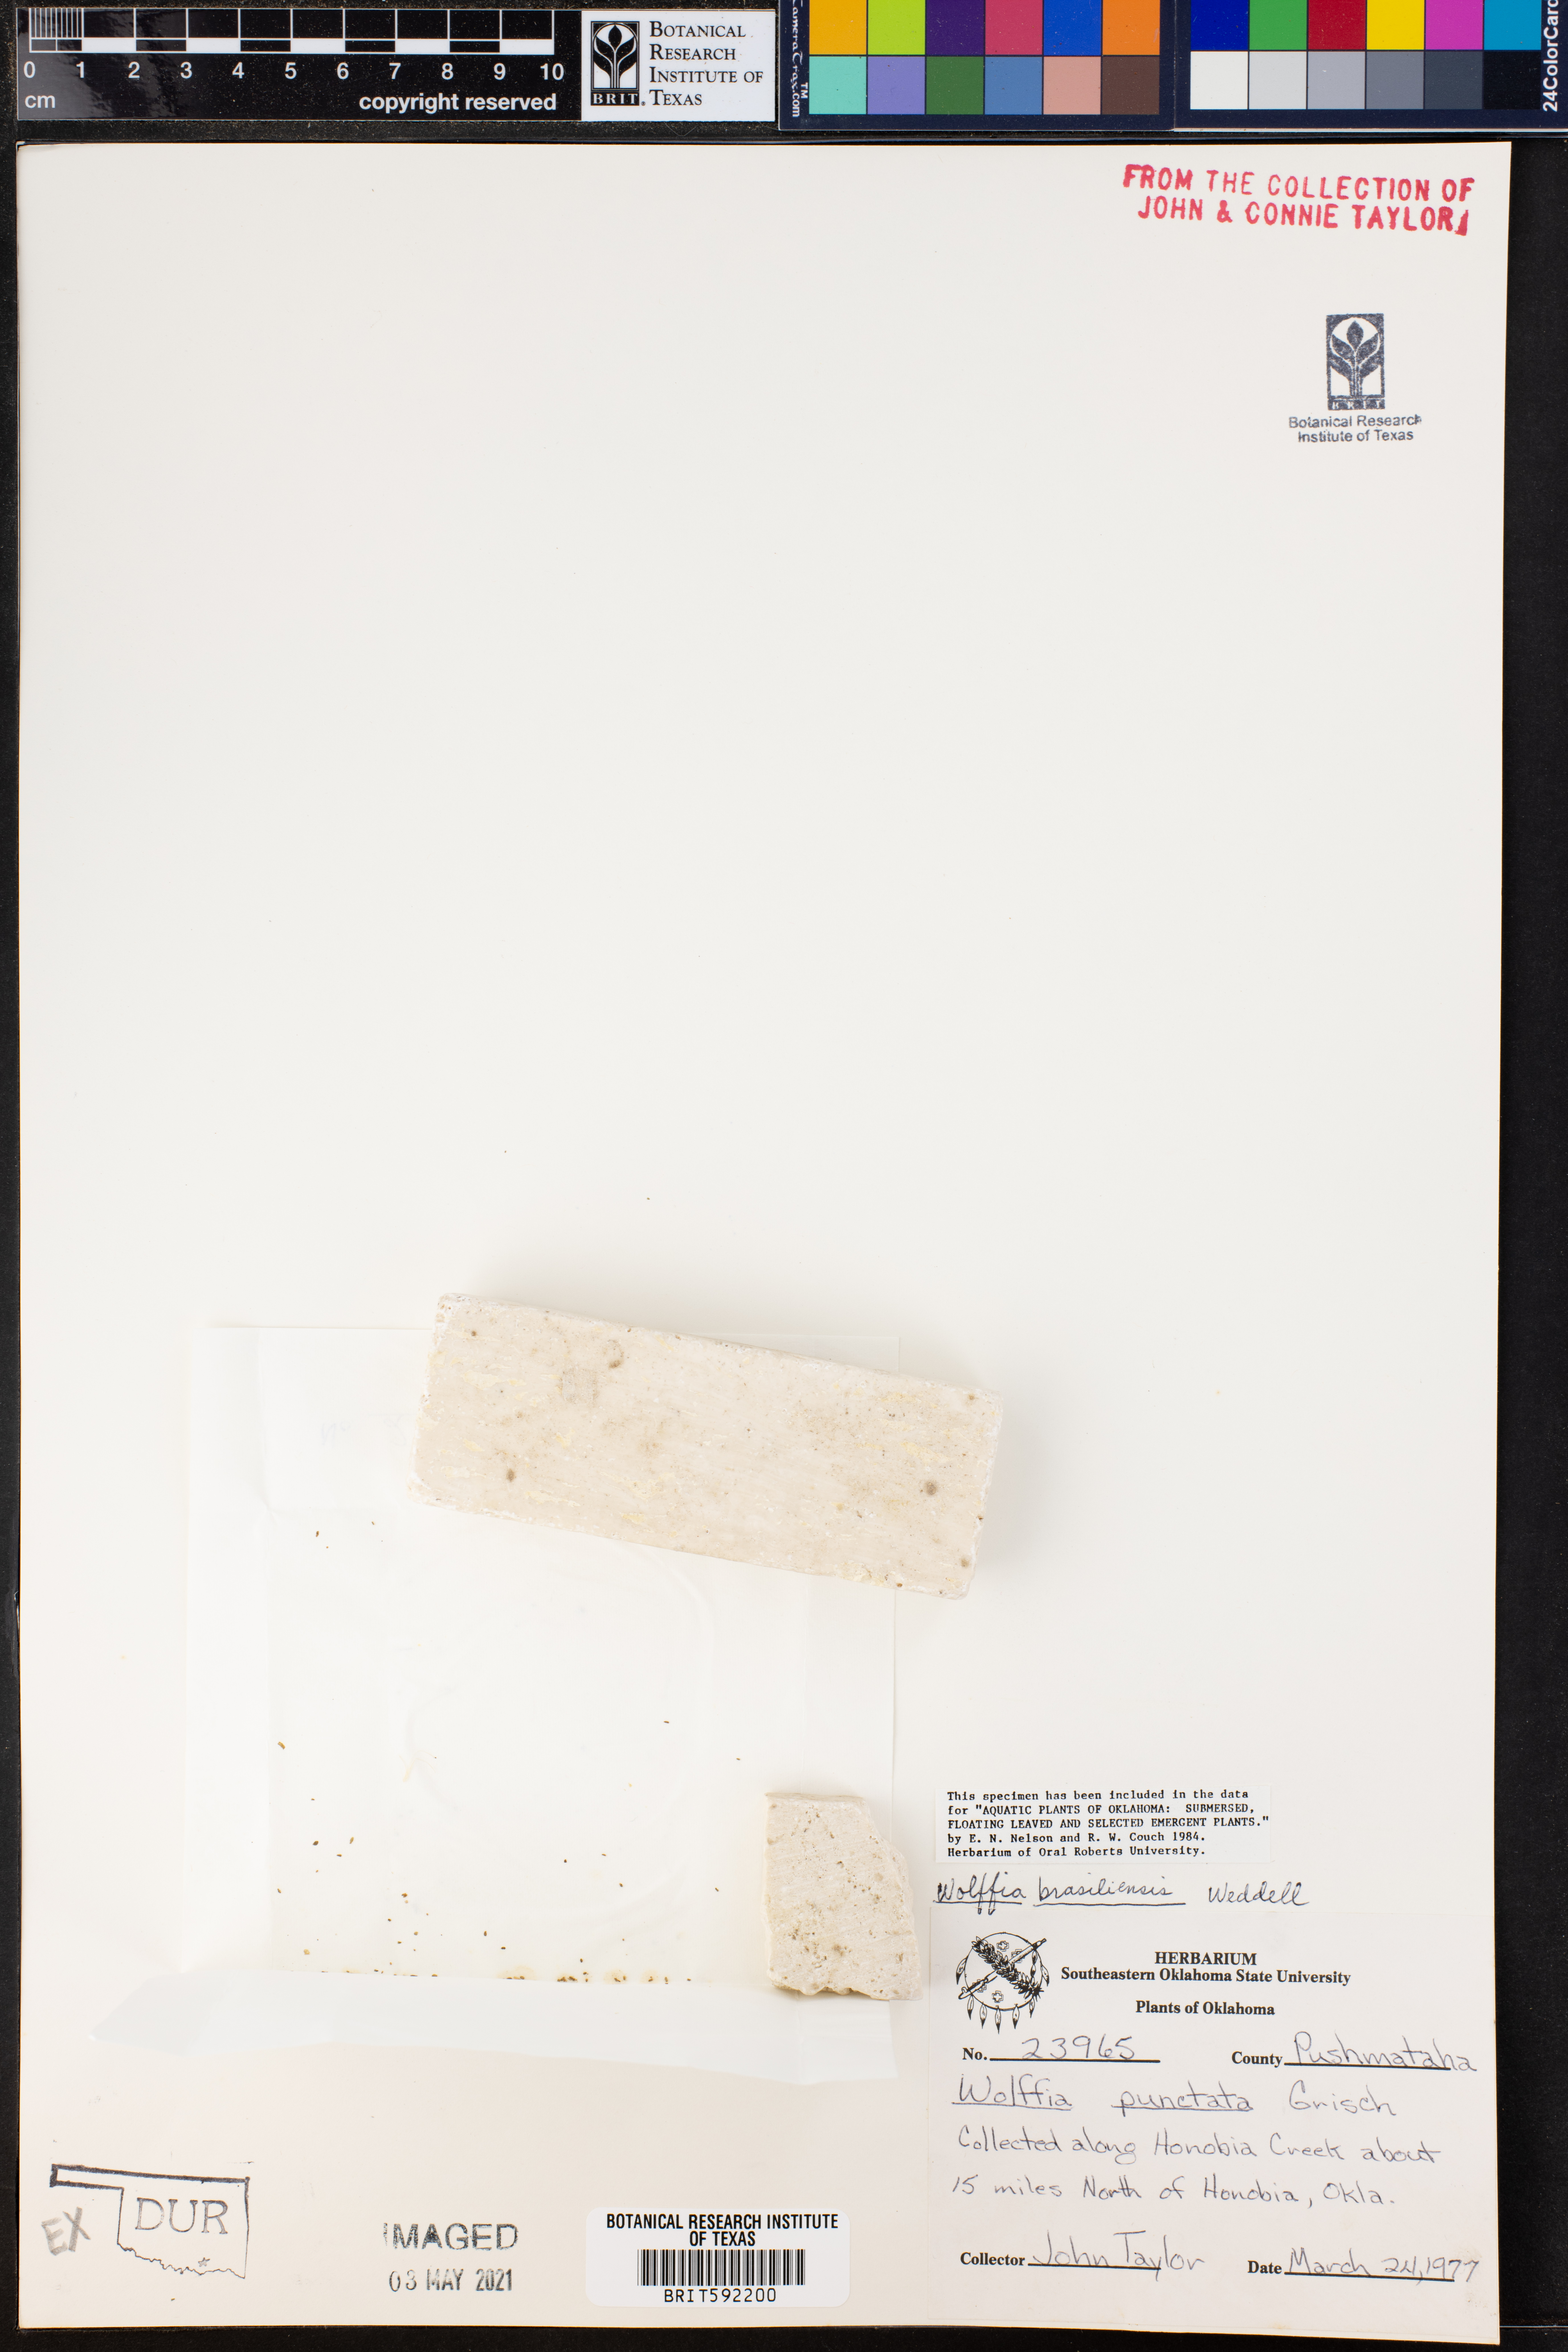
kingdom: Plantae
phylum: Tracheophyta
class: Liliopsida
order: Alismatales
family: Araceae
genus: Wolffia
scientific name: Wolffia brasiliensis
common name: Brazilian watermeal
